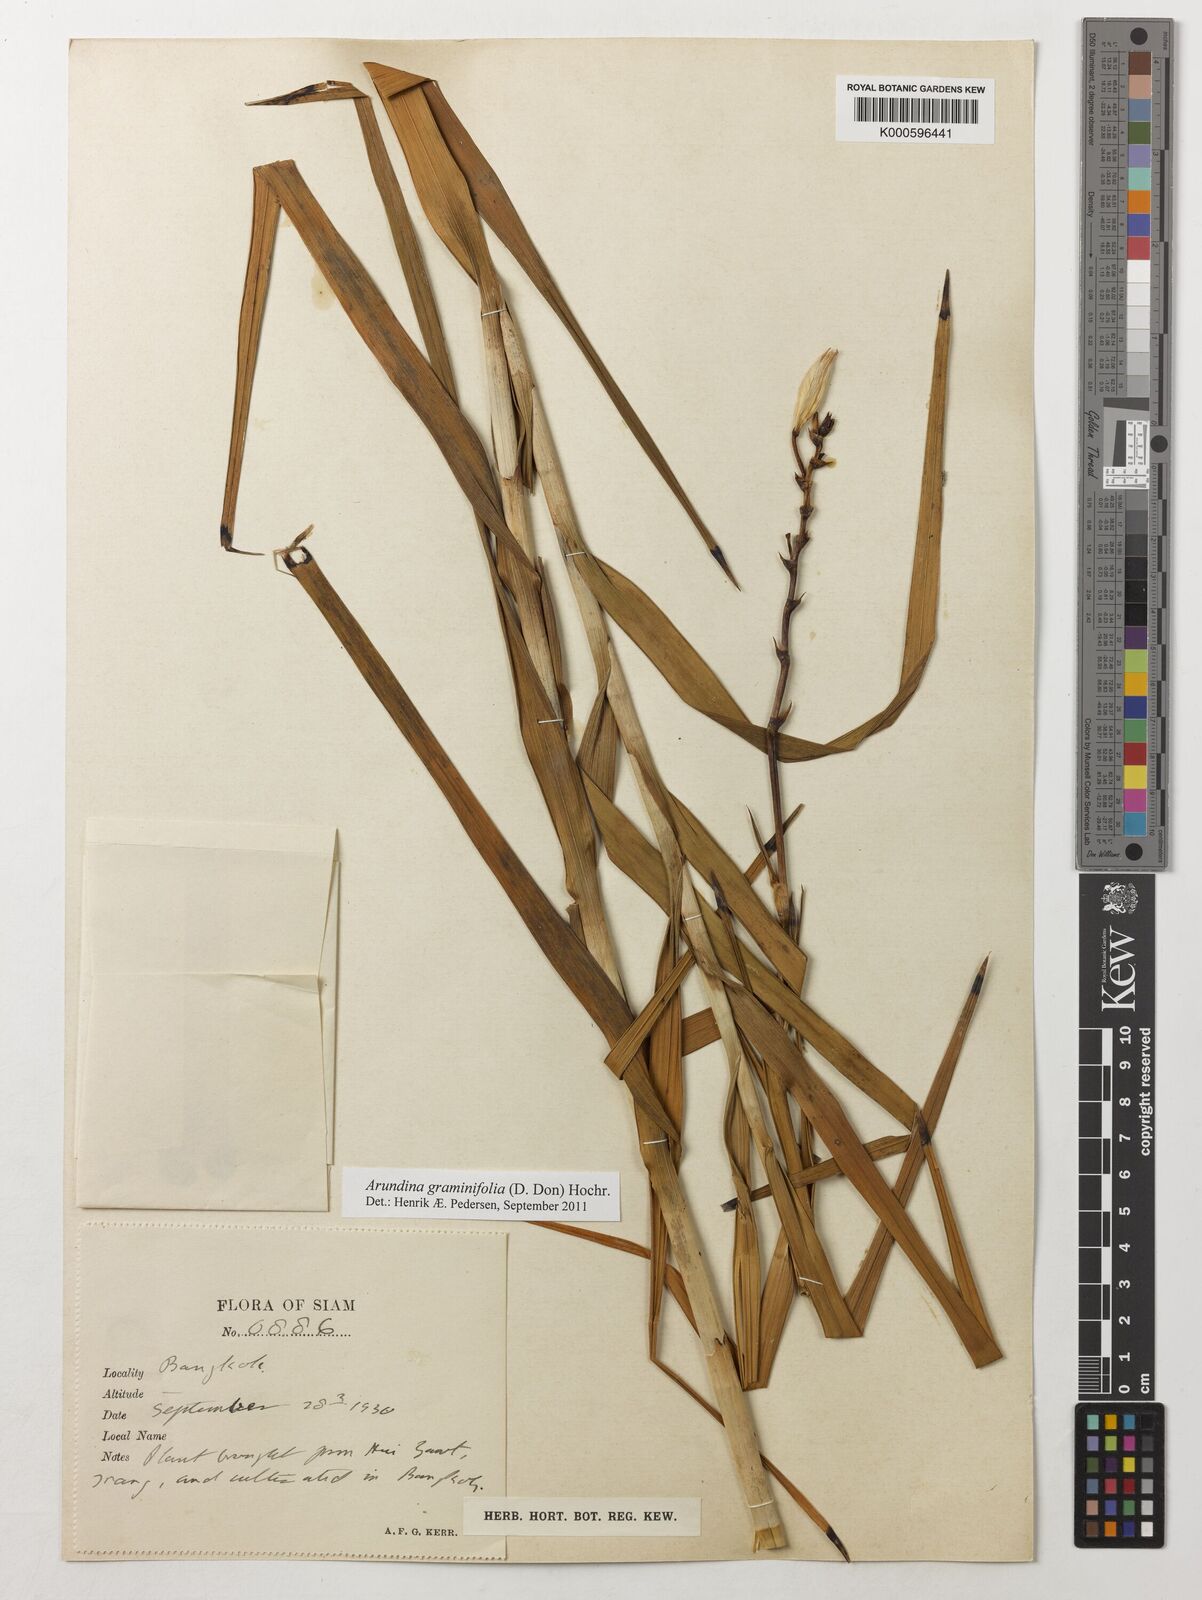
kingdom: Plantae
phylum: Tracheophyta
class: Liliopsida
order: Asparagales
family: Orchidaceae
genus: Arundina
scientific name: Arundina graminifolia
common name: Bamboo orchid
